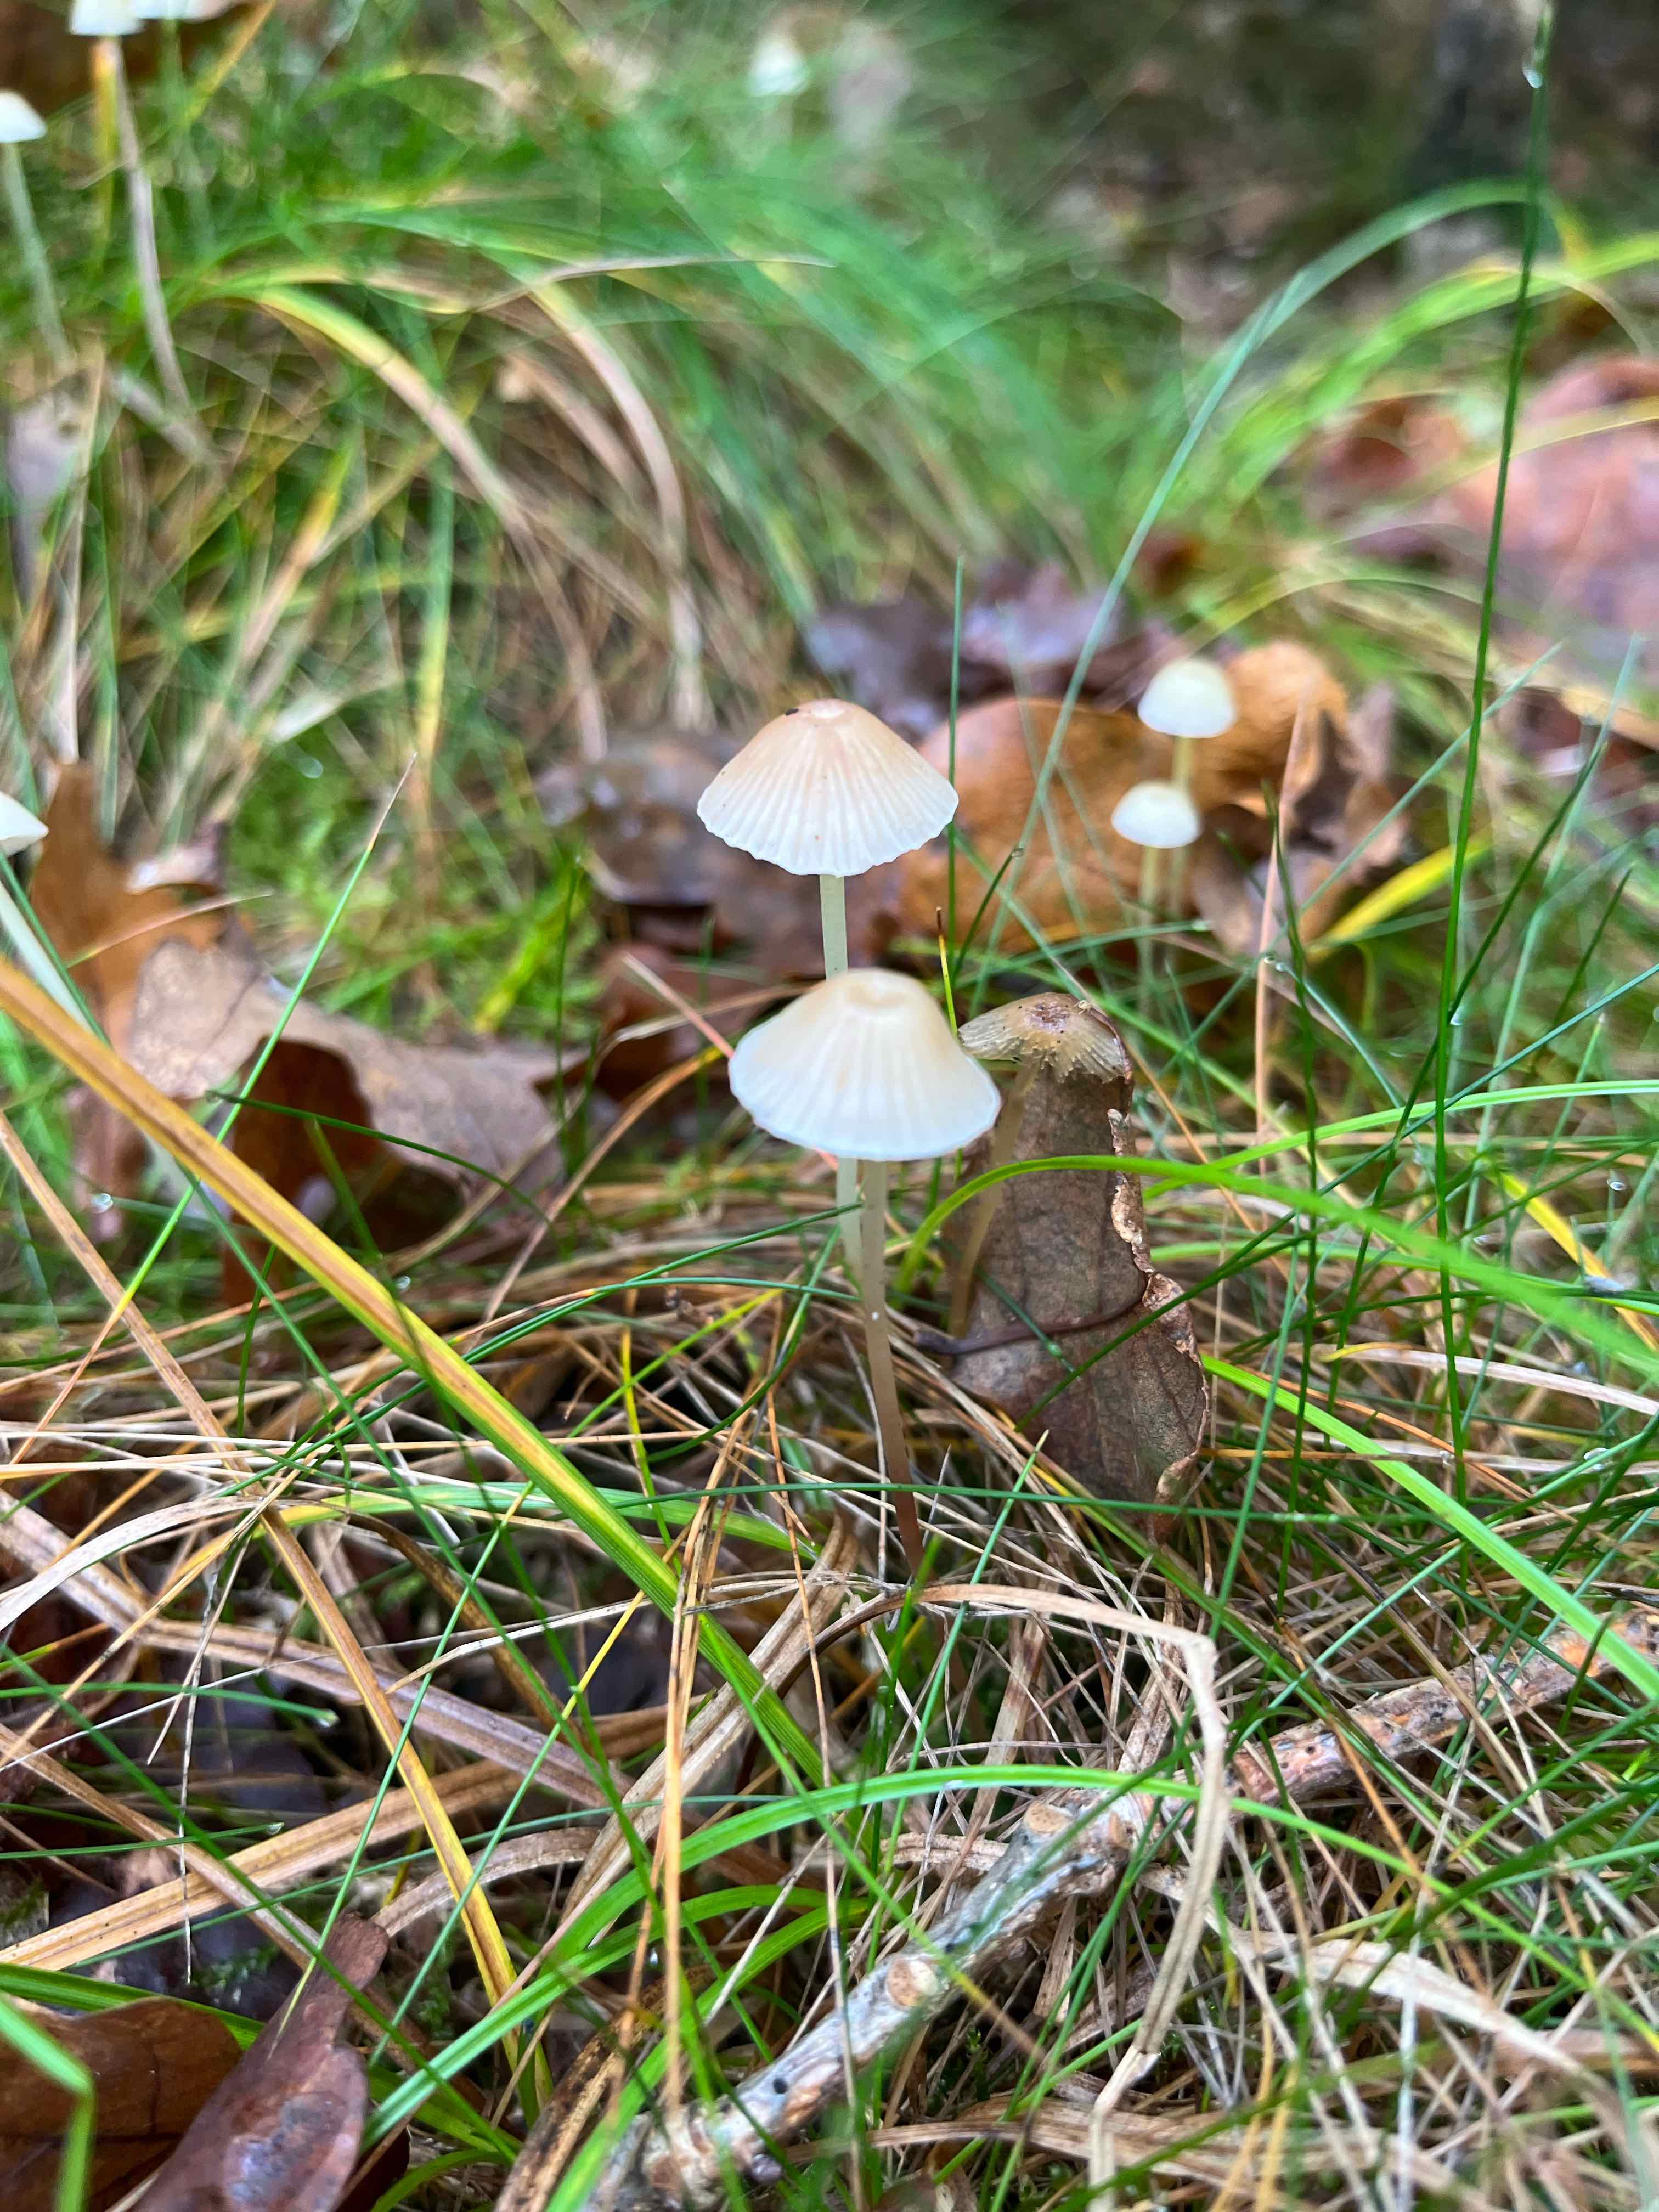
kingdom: Fungi
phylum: Basidiomycota
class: Agaricomycetes
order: Agaricales
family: Mycenaceae
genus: Mycena
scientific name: Mycena
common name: huesvamp
